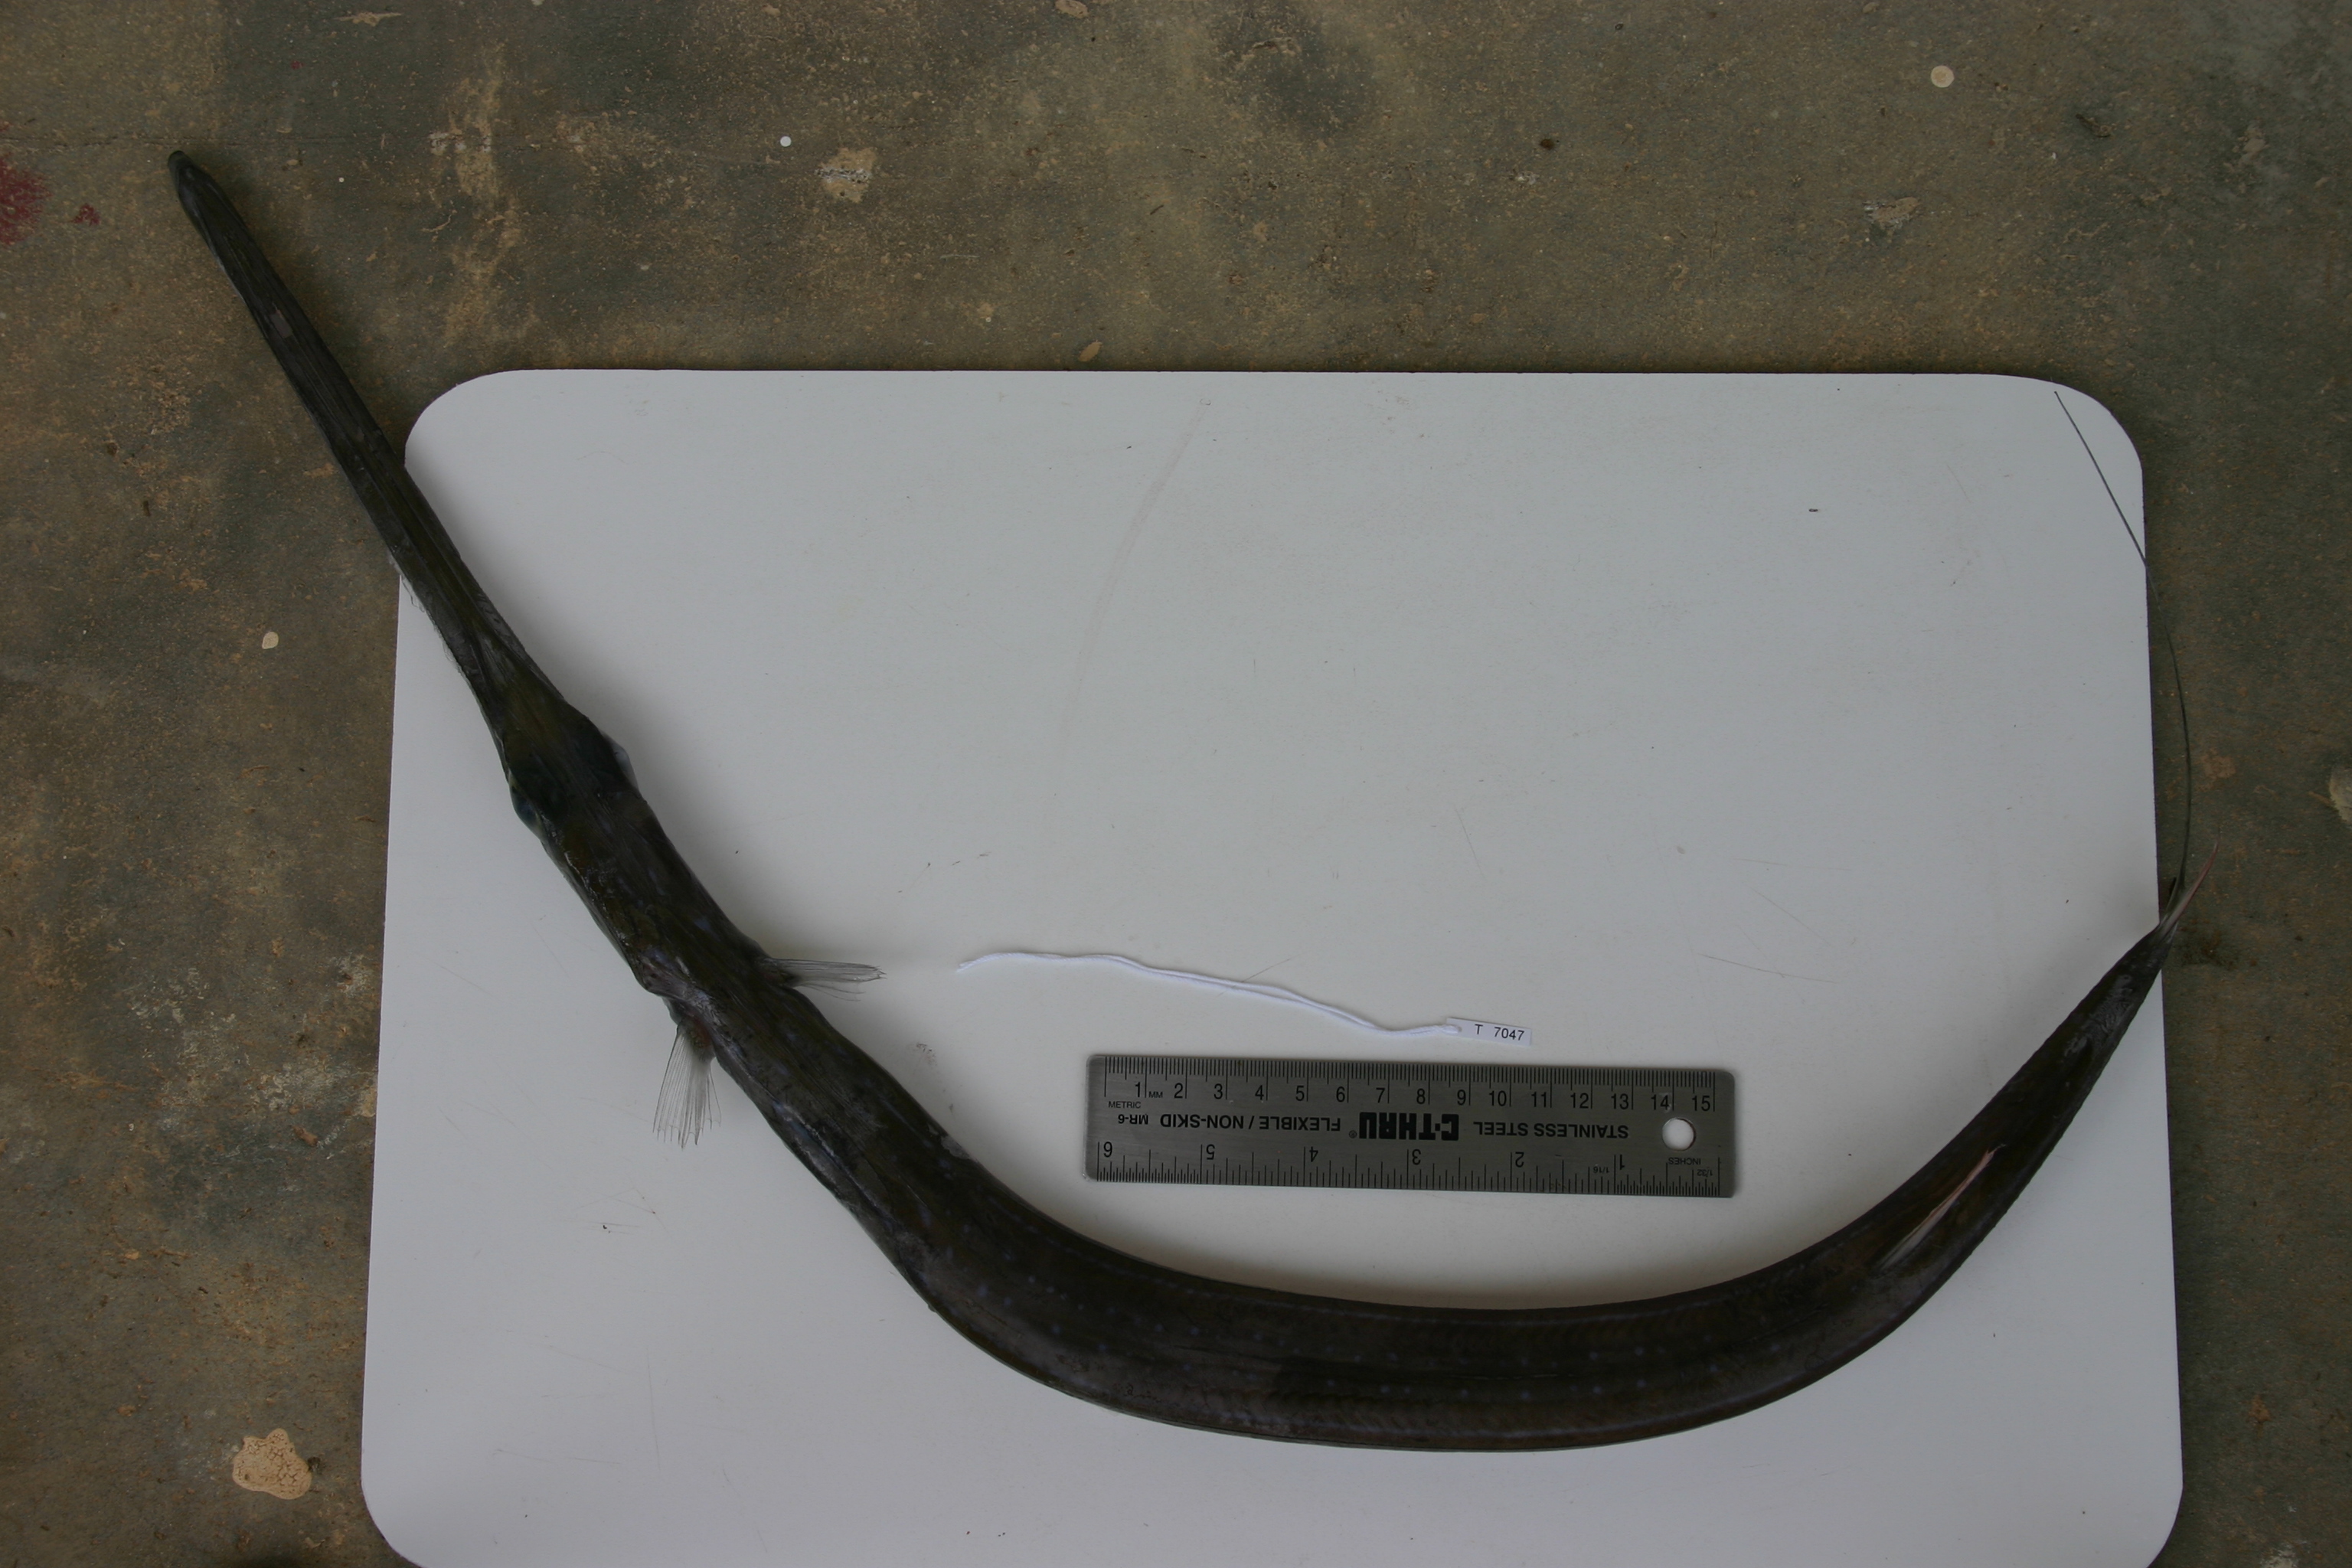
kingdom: Animalia
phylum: Chordata
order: Syngnathiformes
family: Fistulariidae
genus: Fistularia
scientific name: Fistularia commersonii
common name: Bluespotted cornetfish
